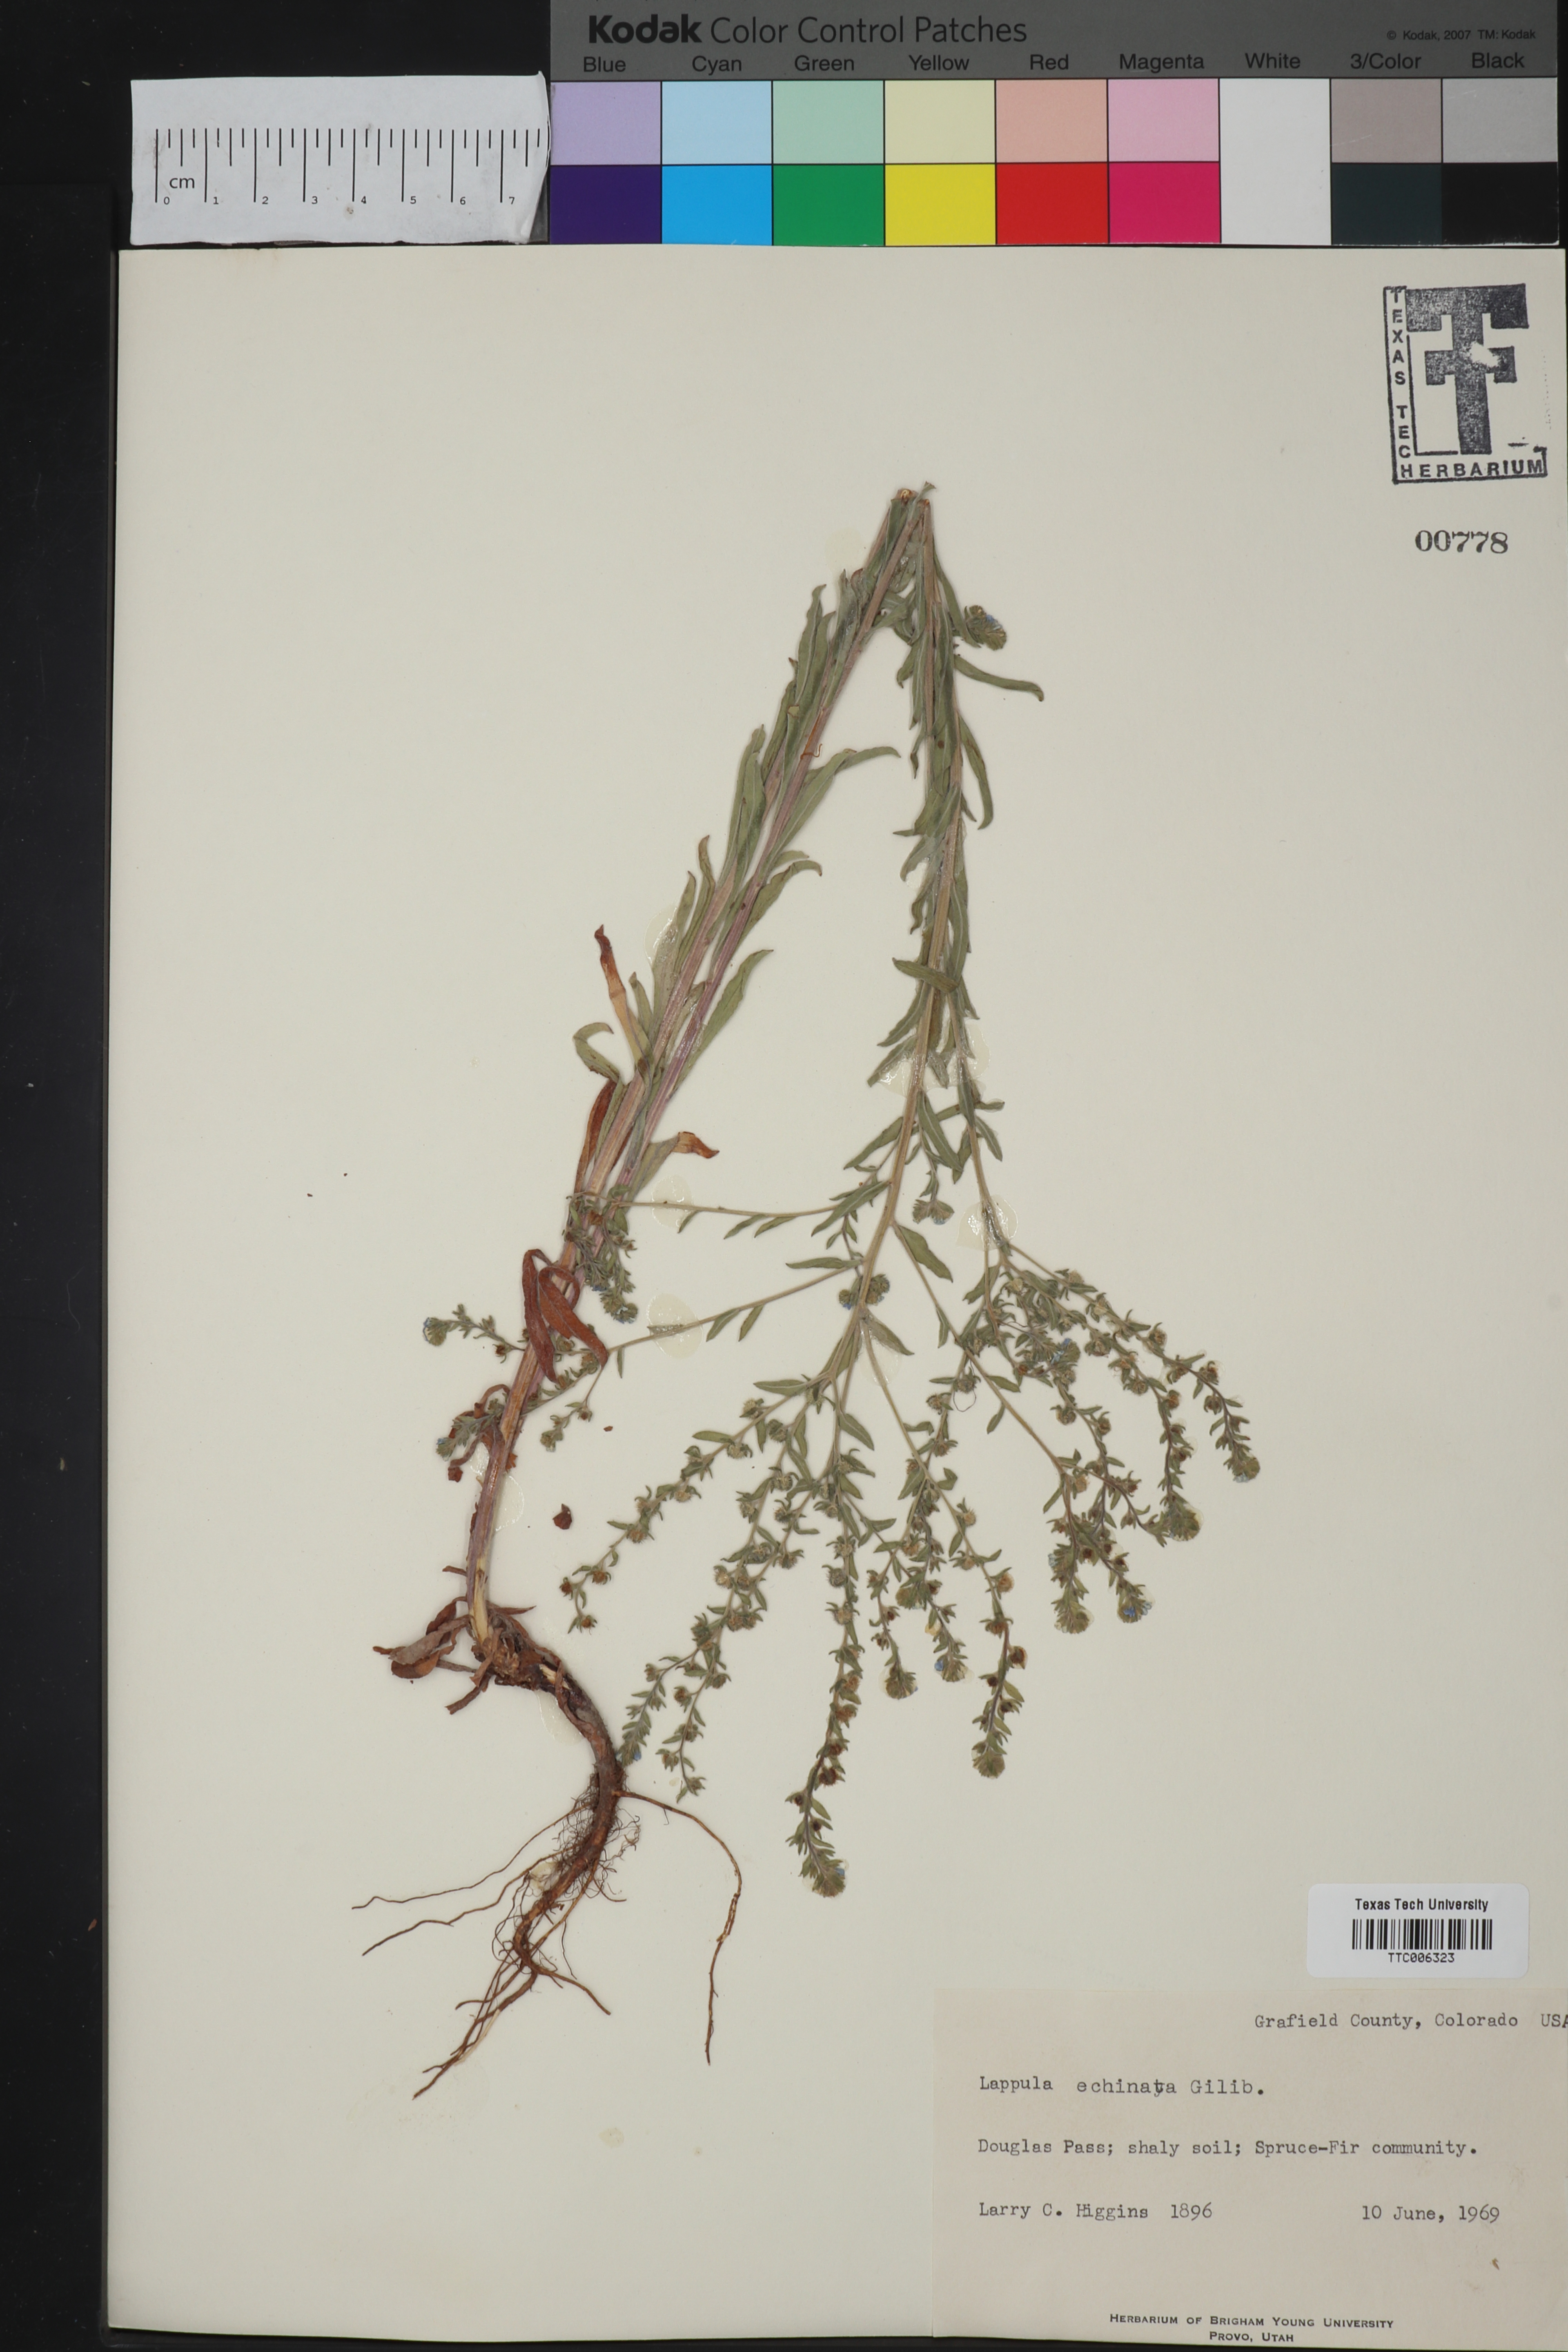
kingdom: Plantae
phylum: Tracheophyta
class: Magnoliopsida
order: Boraginales
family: Boraginaceae
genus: Lappula
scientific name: Lappula squarrosa
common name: European stickseed
